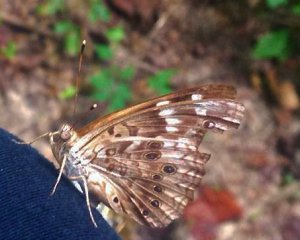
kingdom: Animalia
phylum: Arthropoda
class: Insecta
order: Lepidoptera
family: Nymphalidae
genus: Asterocampa
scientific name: Asterocampa celtis
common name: Hackberry Emperor
